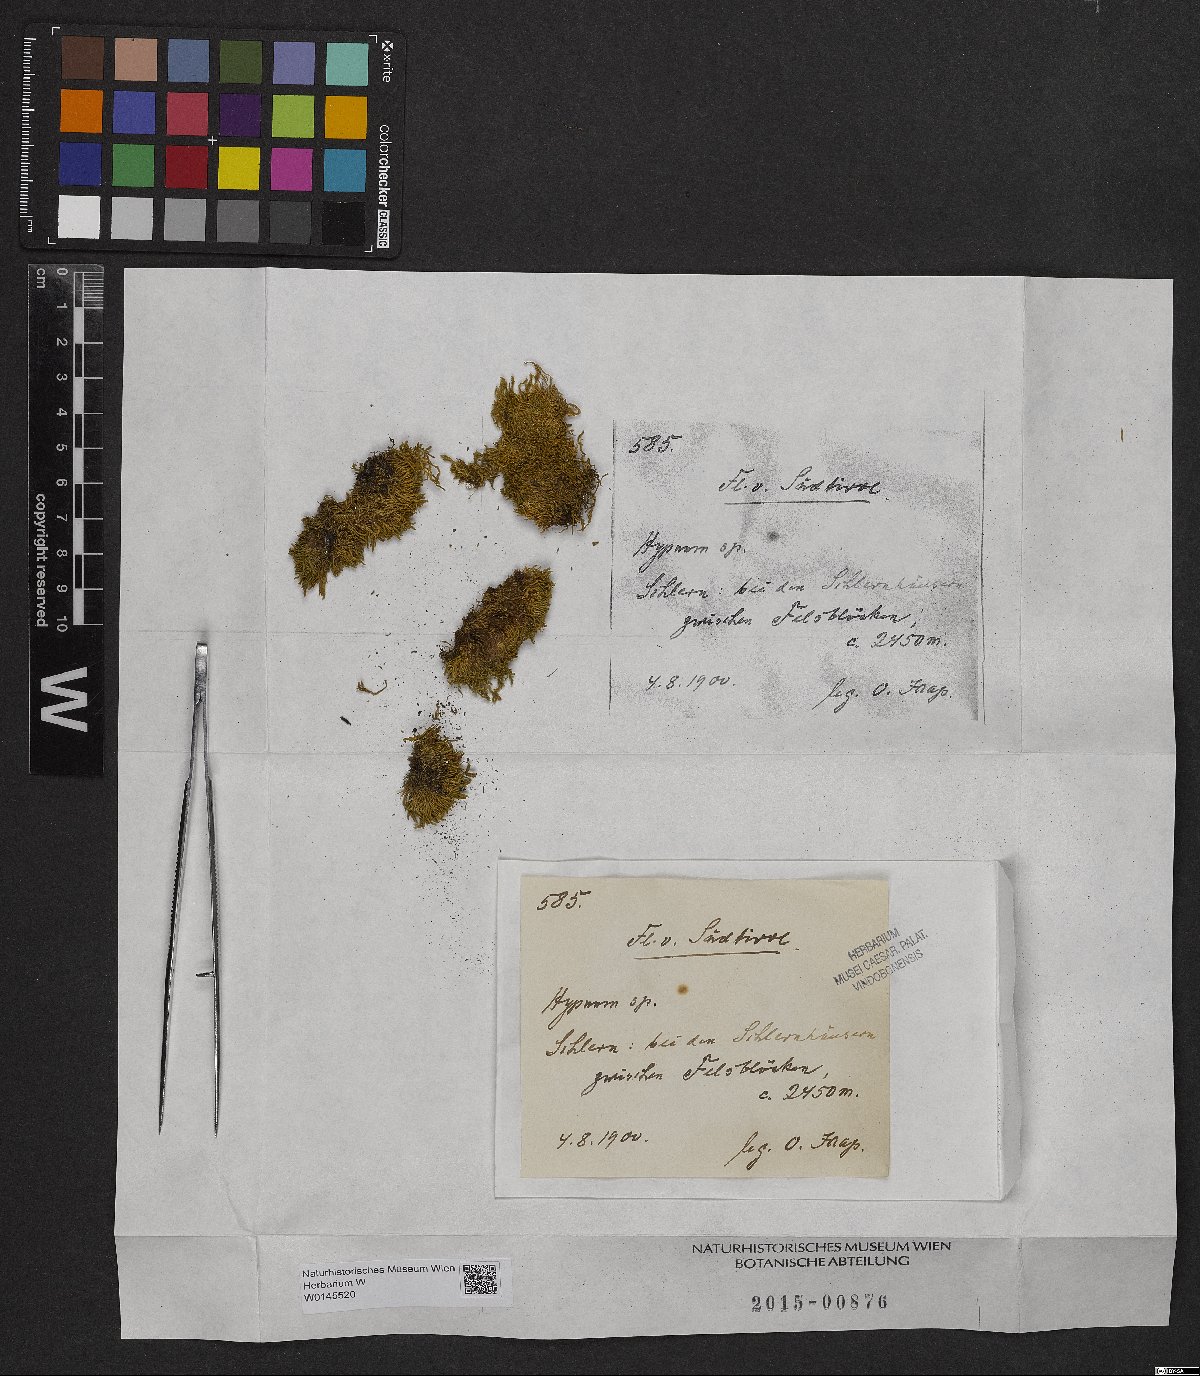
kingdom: Plantae
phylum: Bryophyta
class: Bryopsida
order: Hypnales
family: Hypnaceae
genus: Hypnum
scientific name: Hypnum
